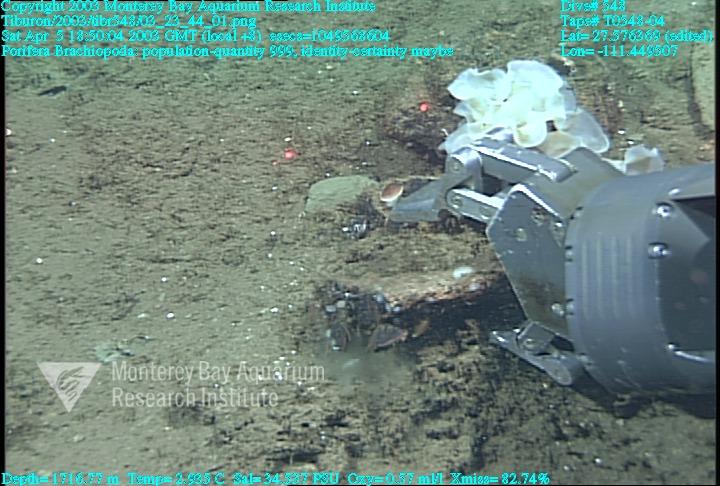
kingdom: Animalia
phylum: Porifera
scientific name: Porifera
